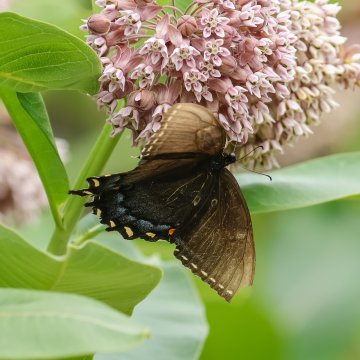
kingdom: Animalia
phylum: Arthropoda
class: Insecta
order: Lepidoptera
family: Papilionidae
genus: Pterourus
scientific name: Pterourus glaucus
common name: Eastern Tiger Swallowtail
